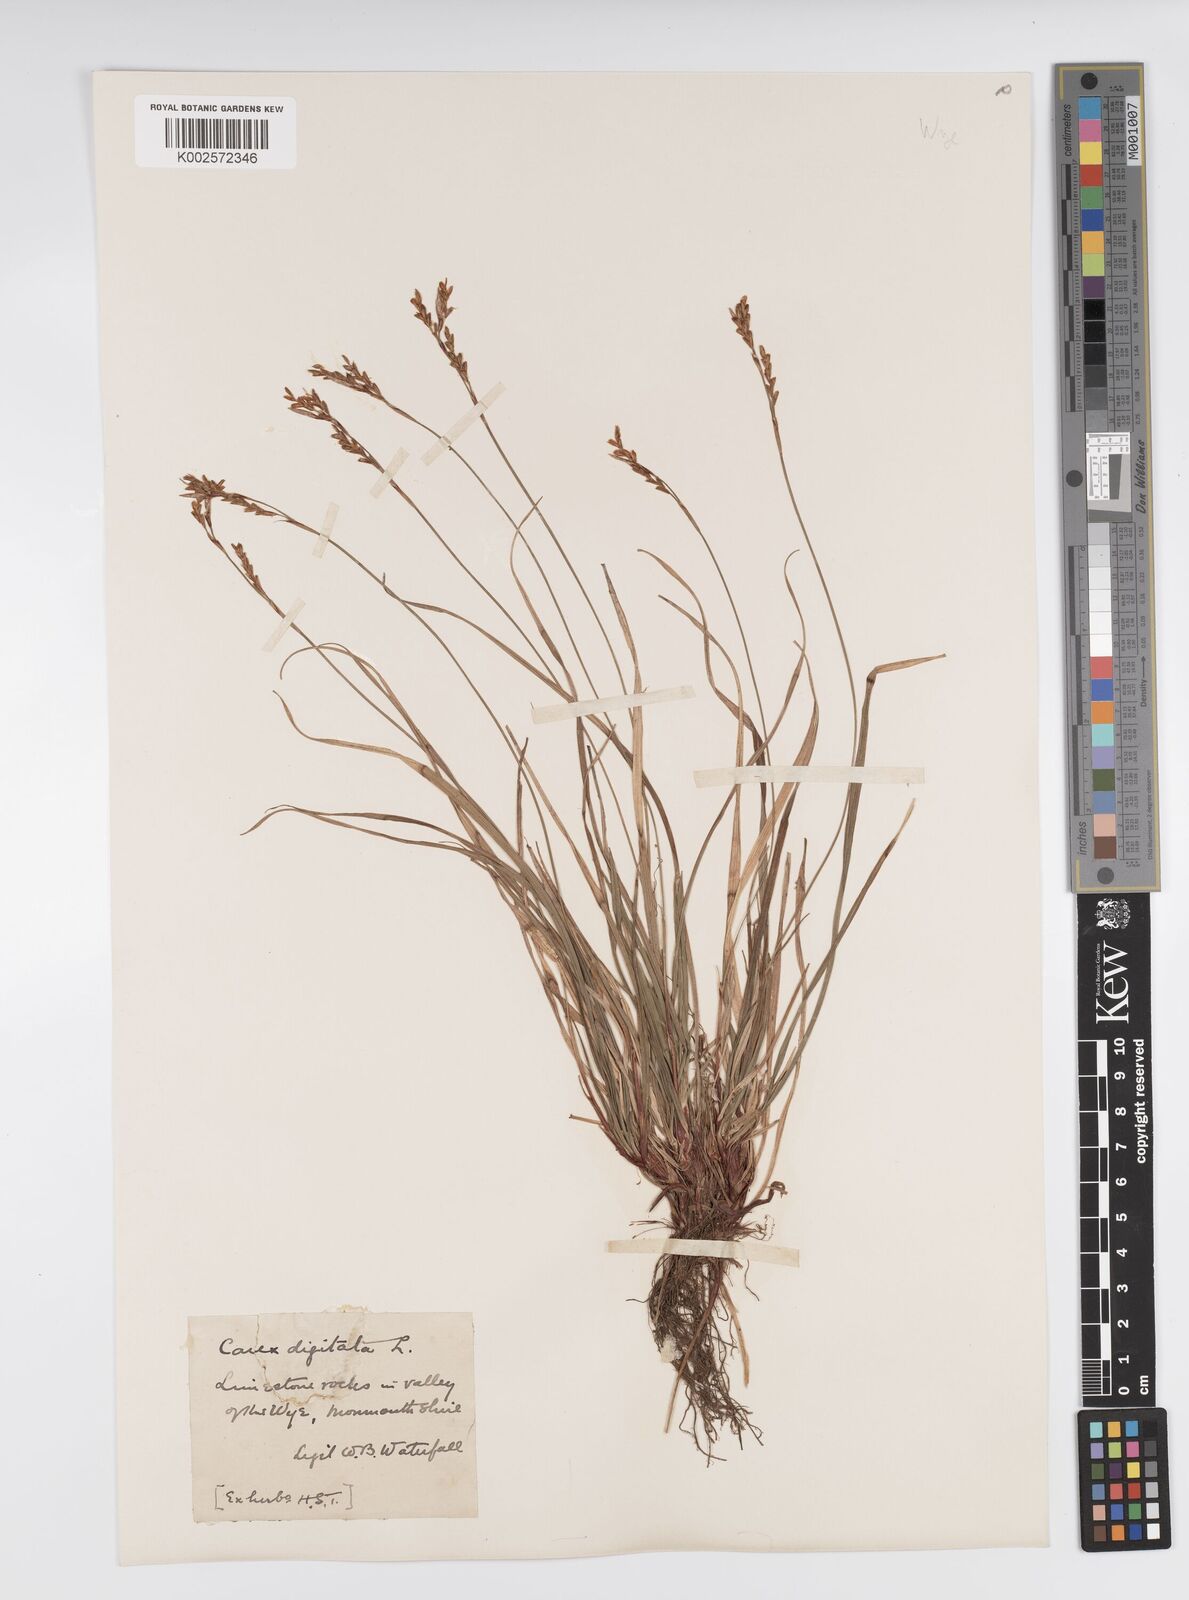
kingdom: Plantae
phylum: Tracheophyta
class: Liliopsida
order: Poales
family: Cyperaceae
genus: Carex
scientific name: Carex digitata
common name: Fingered sedge
